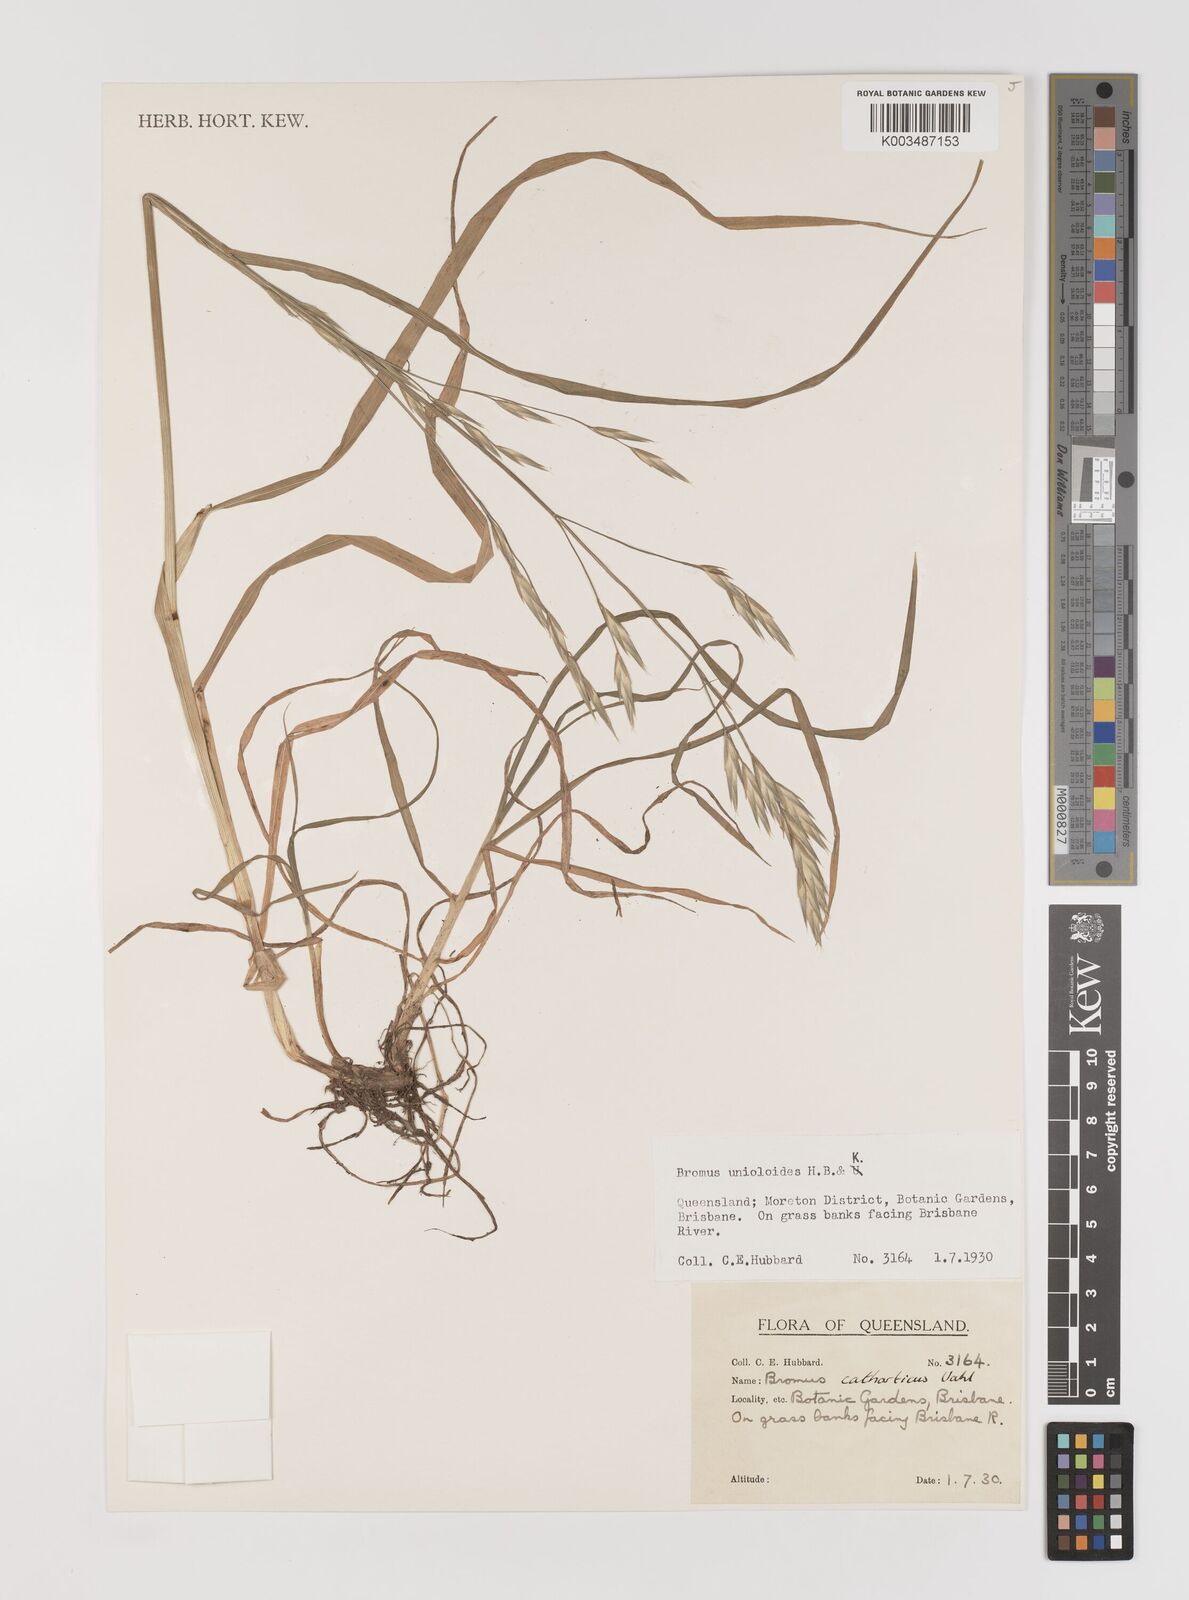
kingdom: Plantae
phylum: Tracheophyta
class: Liliopsida
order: Poales
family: Poaceae
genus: Bromus
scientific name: Bromus catharticus
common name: Rescuegrass
